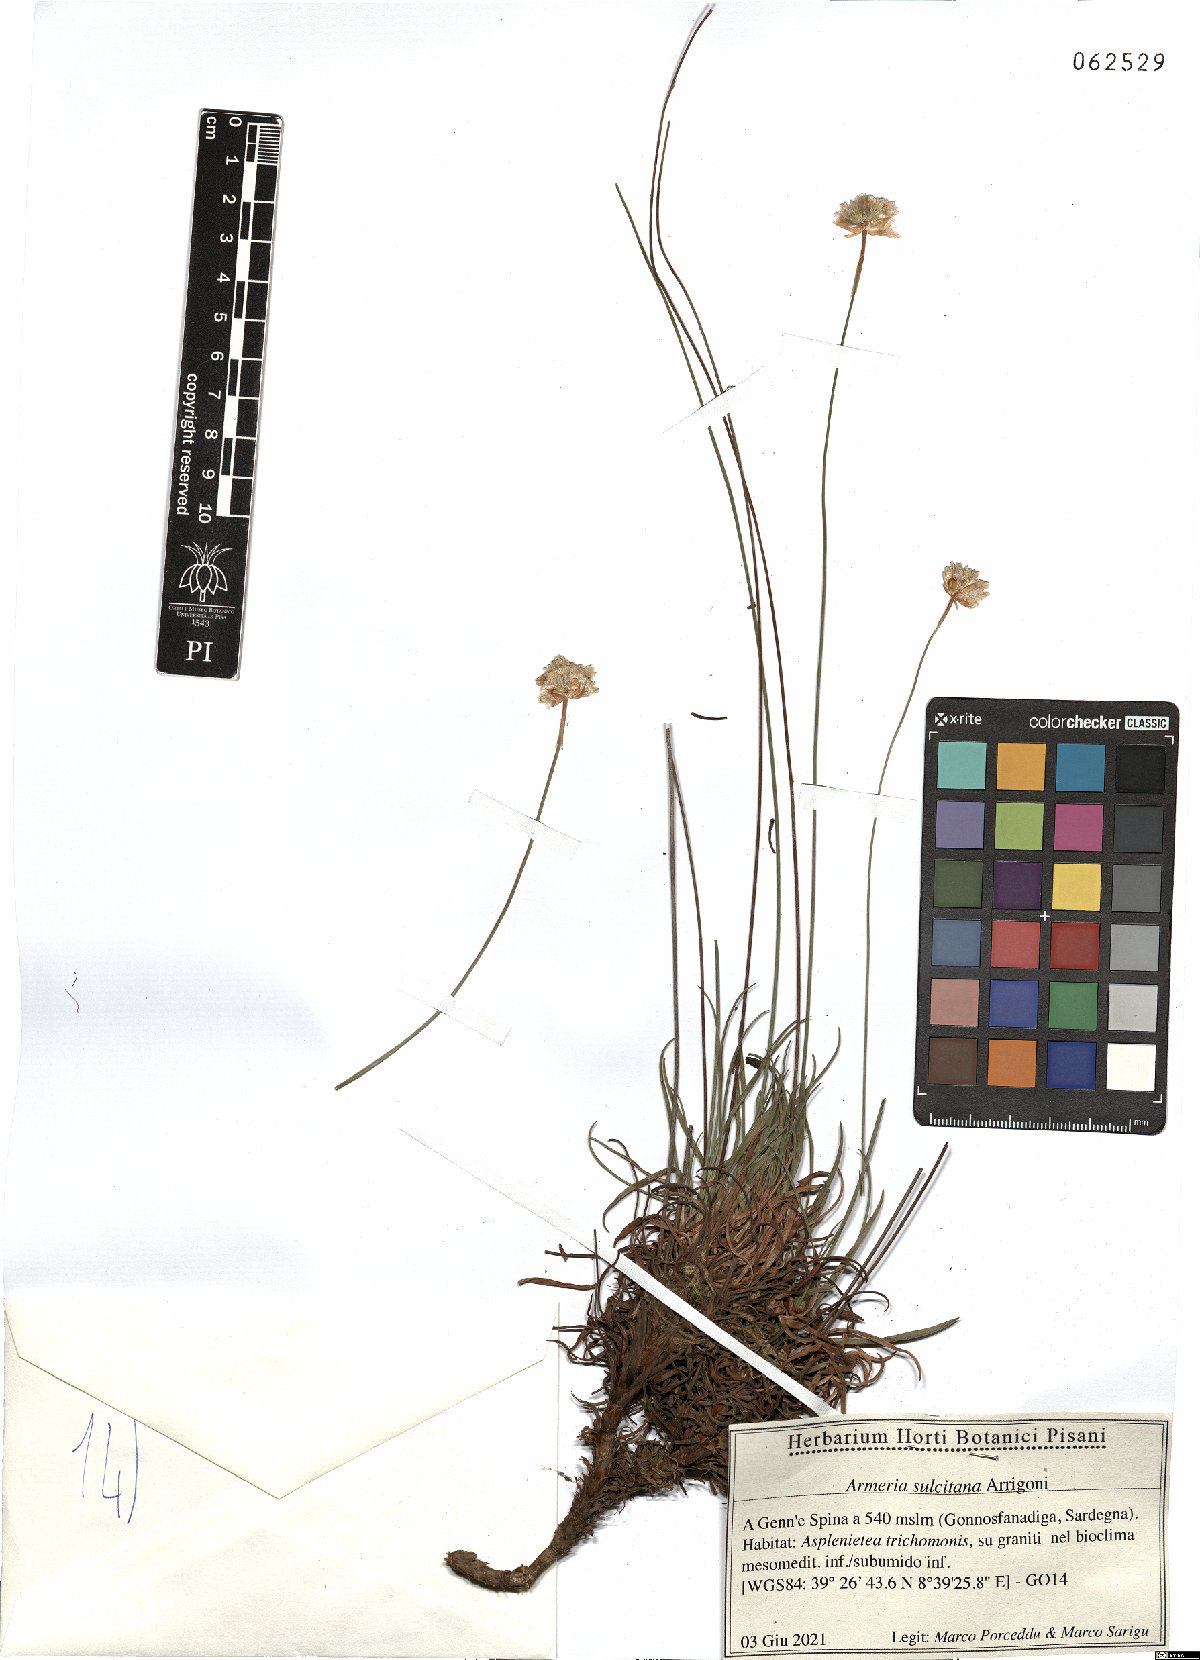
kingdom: Plantae
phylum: Tracheophyta
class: Magnoliopsida
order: Caryophyllales
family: Plumbaginaceae
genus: Armeria
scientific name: Armeria sulcitana
